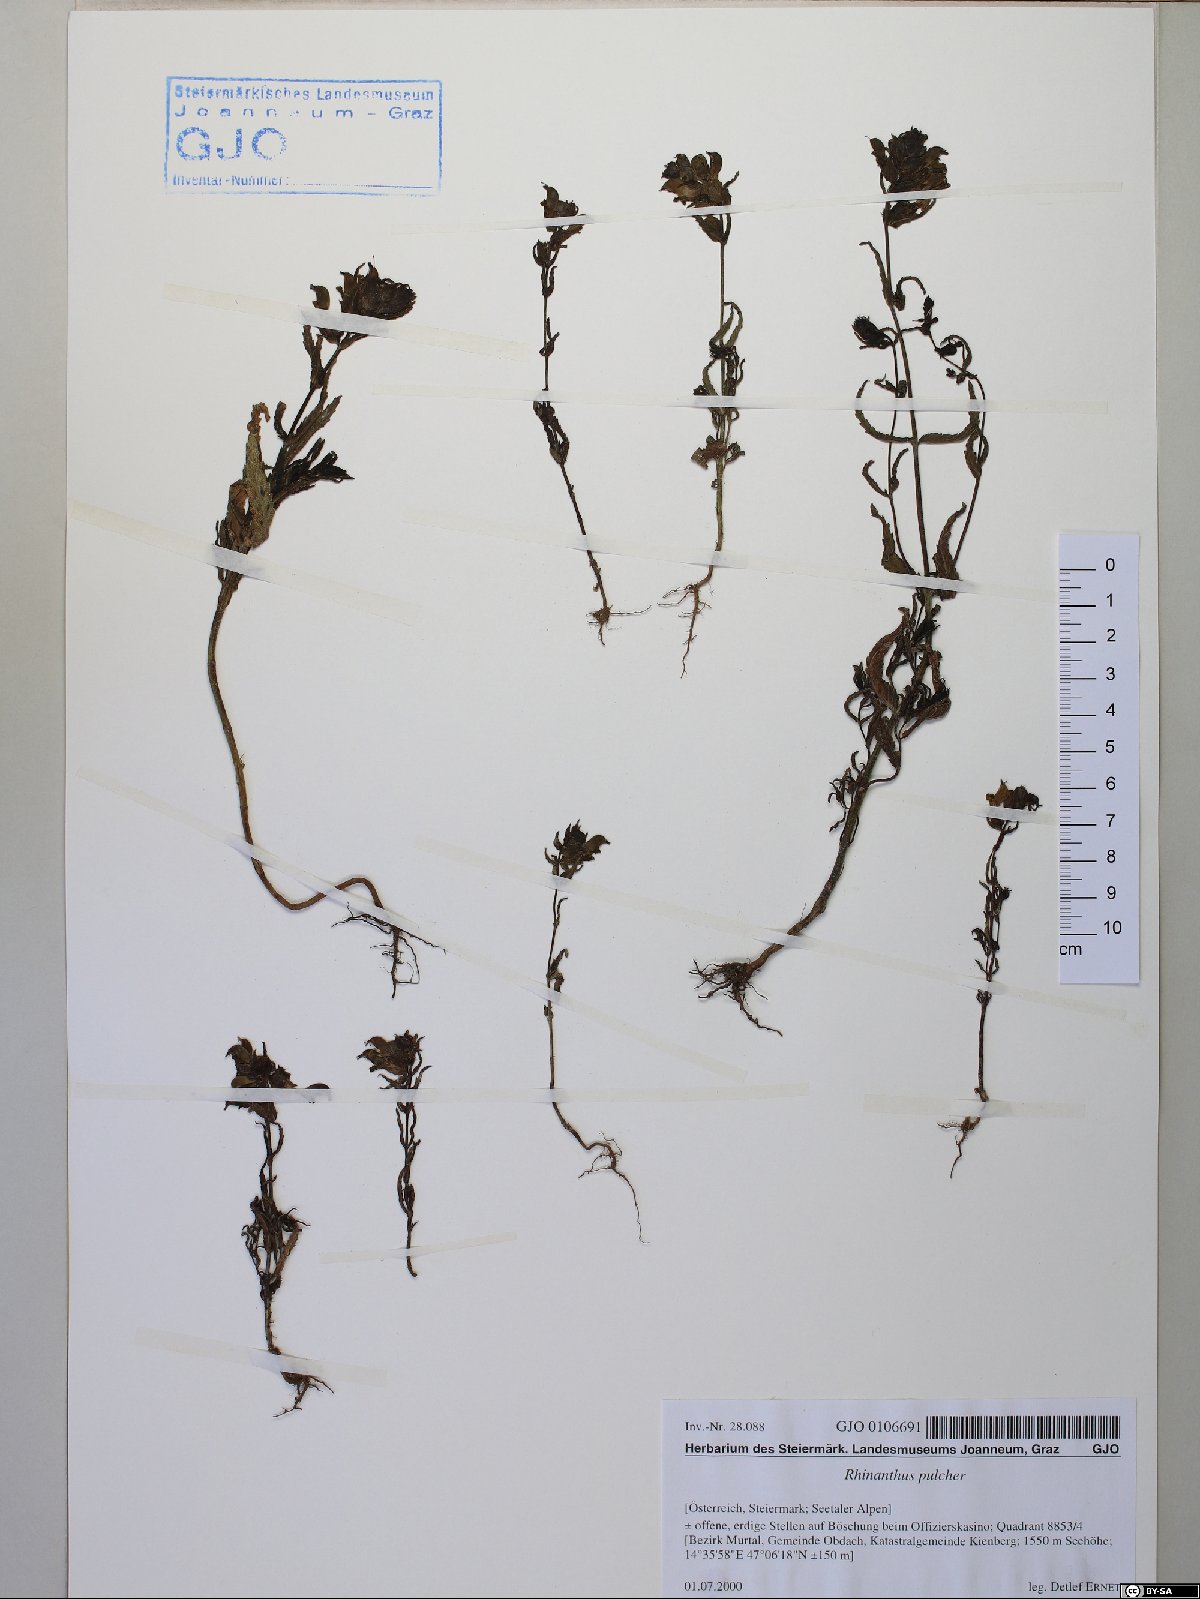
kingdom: Plantae
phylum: Tracheophyta
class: Magnoliopsida
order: Lamiales
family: Orobanchaceae
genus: Rhinanthus
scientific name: Rhinanthus riphaeus
